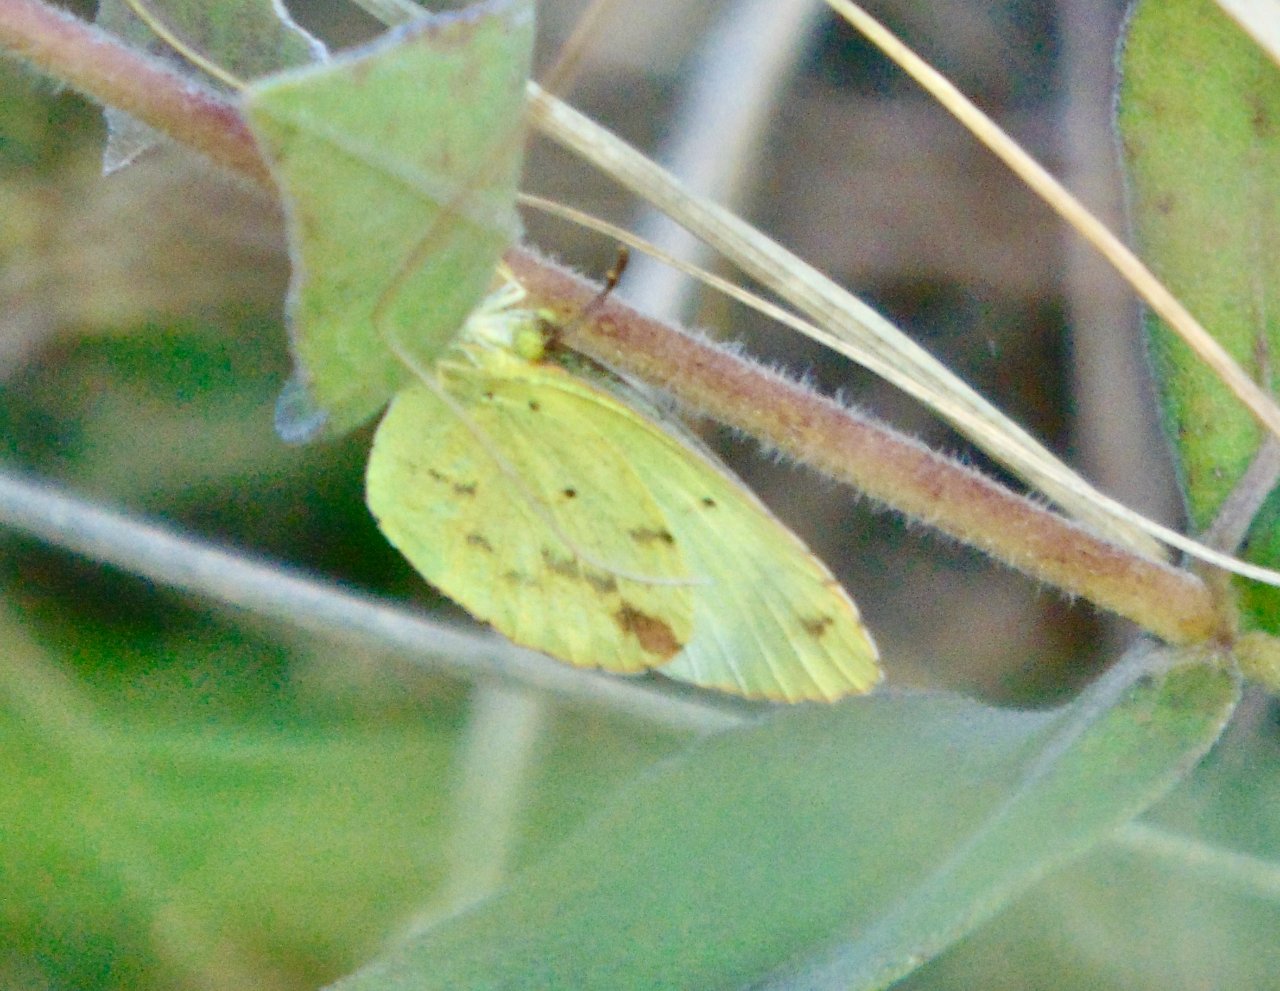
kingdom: Animalia
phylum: Arthropoda
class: Insecta
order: Lepidoptera
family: Pieridae
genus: Pyrisitia
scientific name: Pyrisitia lisa
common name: Little Yellow
